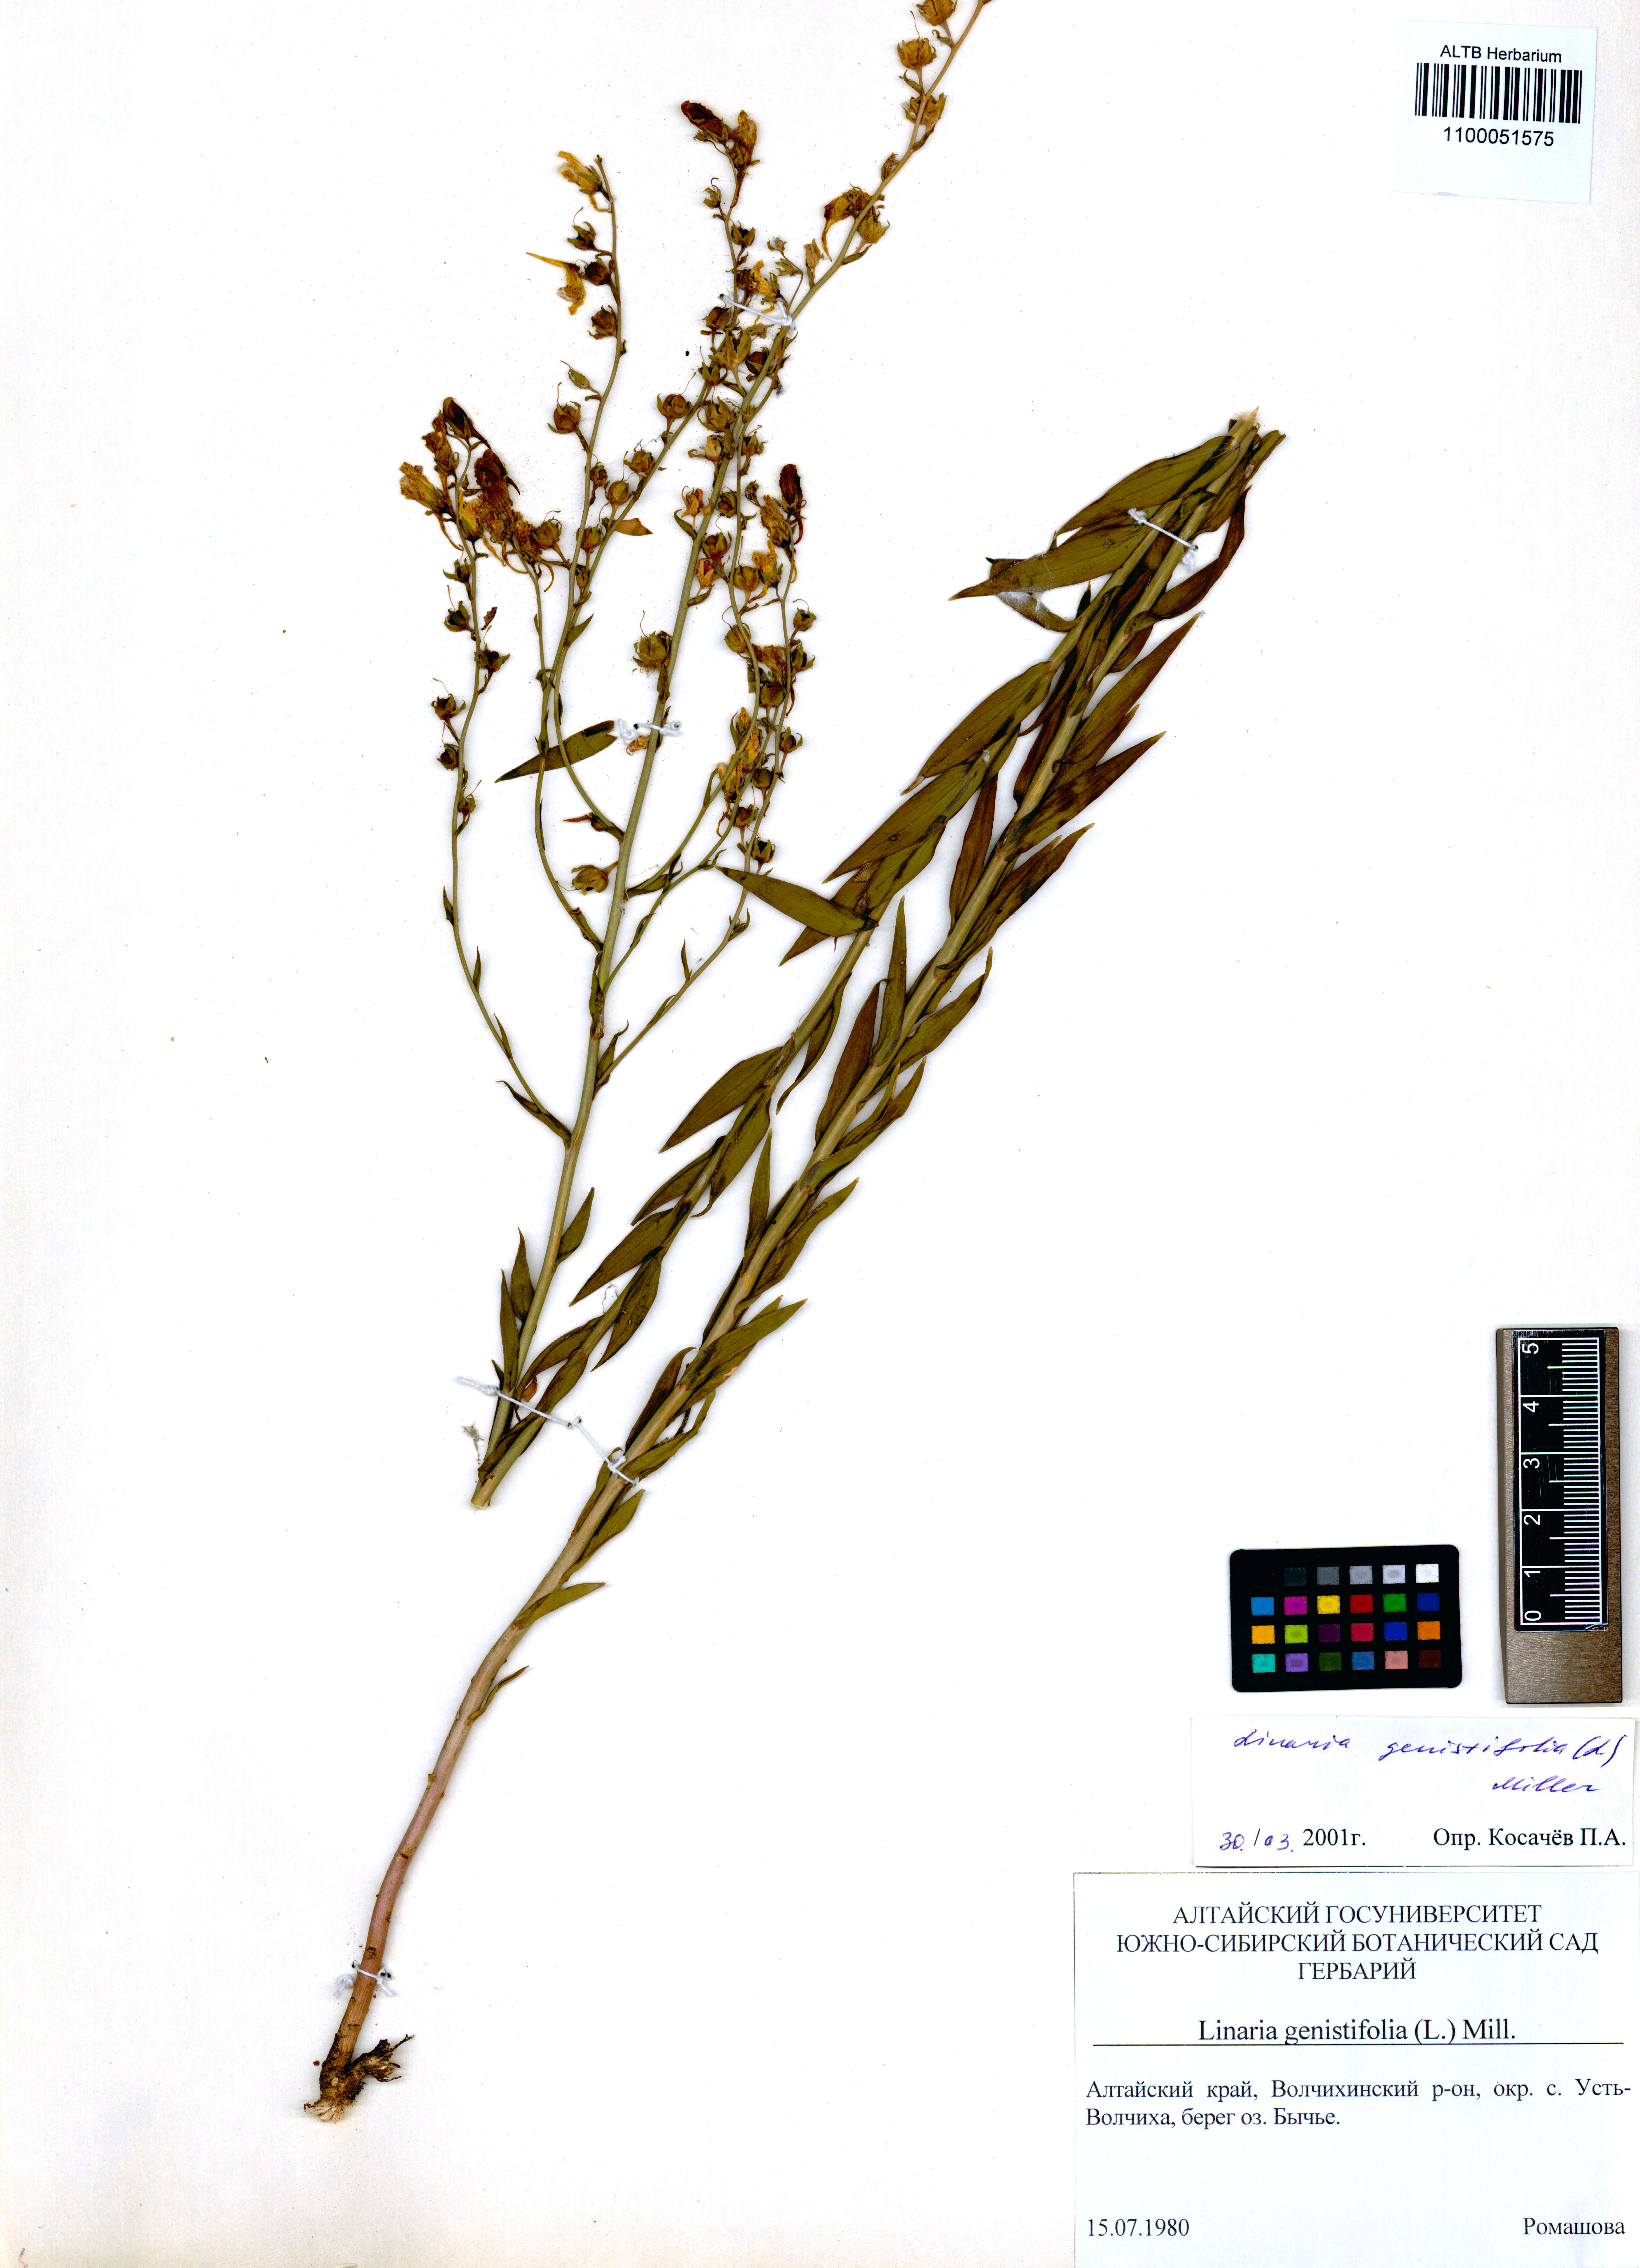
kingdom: Plantae
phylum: Tracheophyta
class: Magnoliopsida
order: Lamiales
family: Plantaginaceae
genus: Linaria
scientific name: Linaria genistifolia
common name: Broomleaf toadflax
